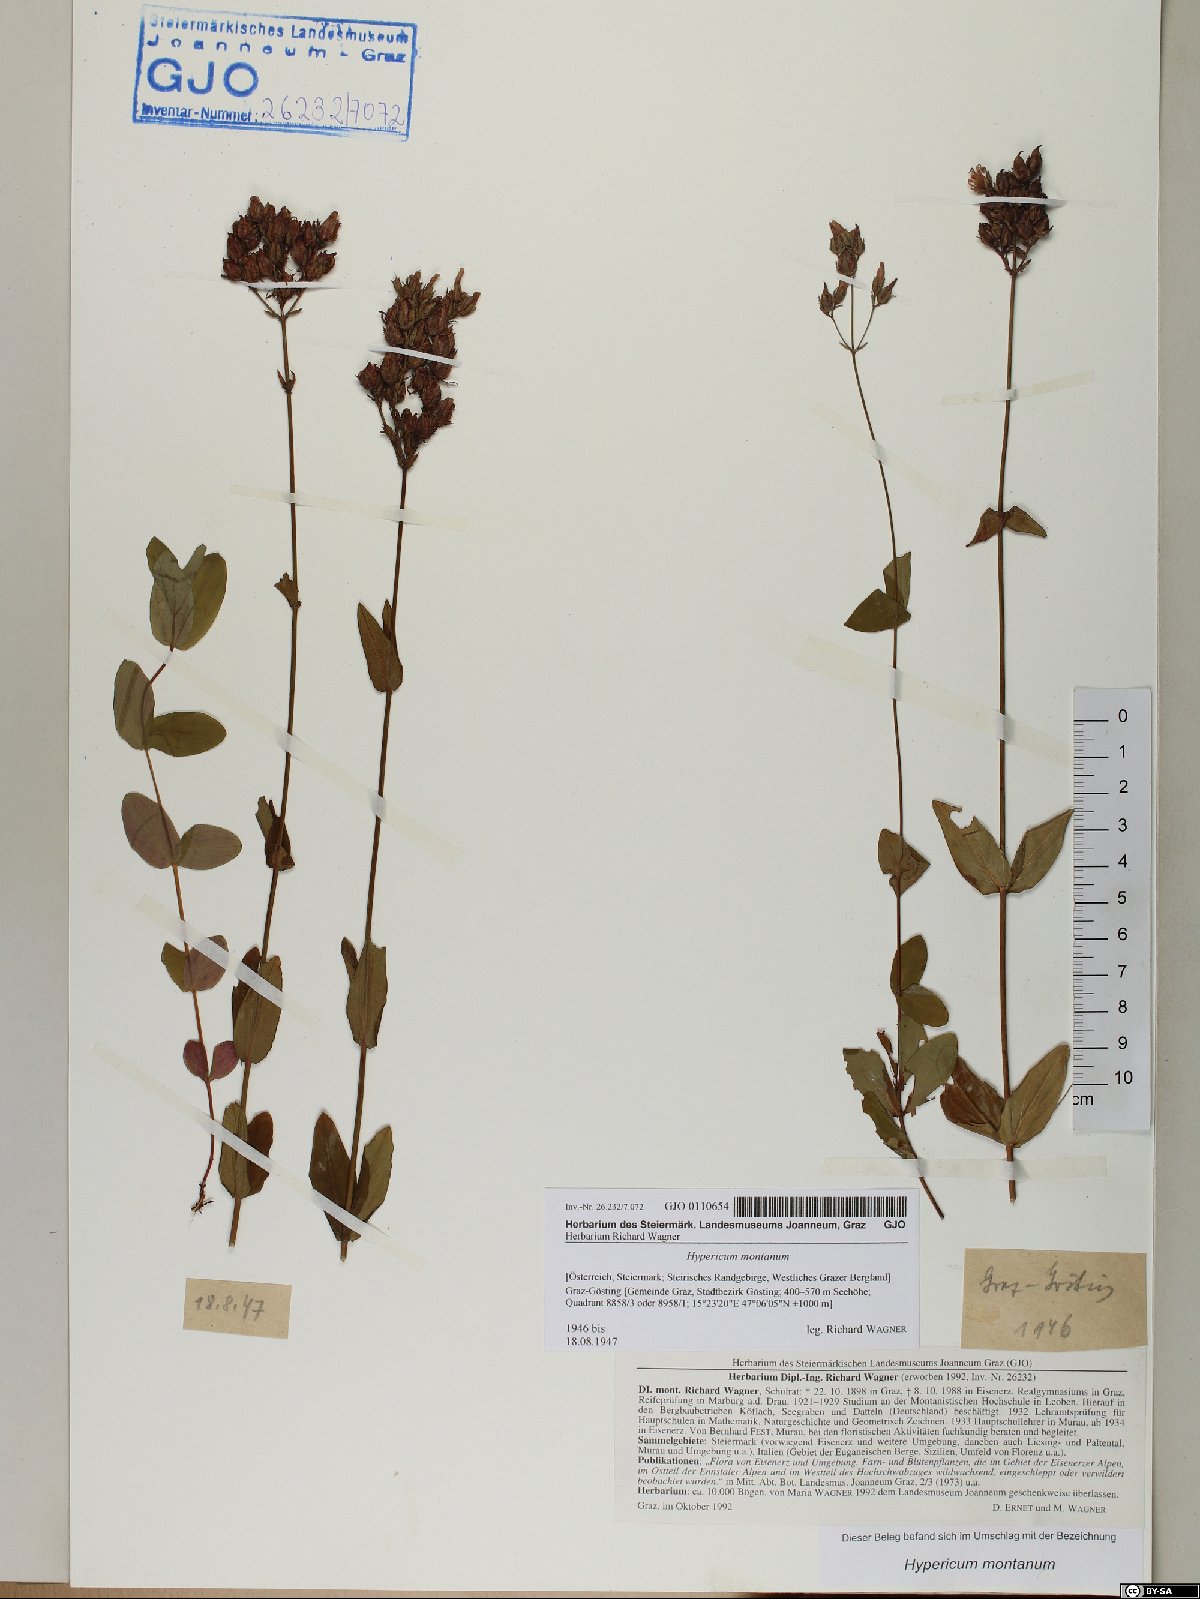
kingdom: Plantae
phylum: Tracheophyta
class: Magnoliopsida
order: Malpighiales
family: Hypericaceae
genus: Hypericum
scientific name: Hypericum montanum
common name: Pale st. john's-wort
